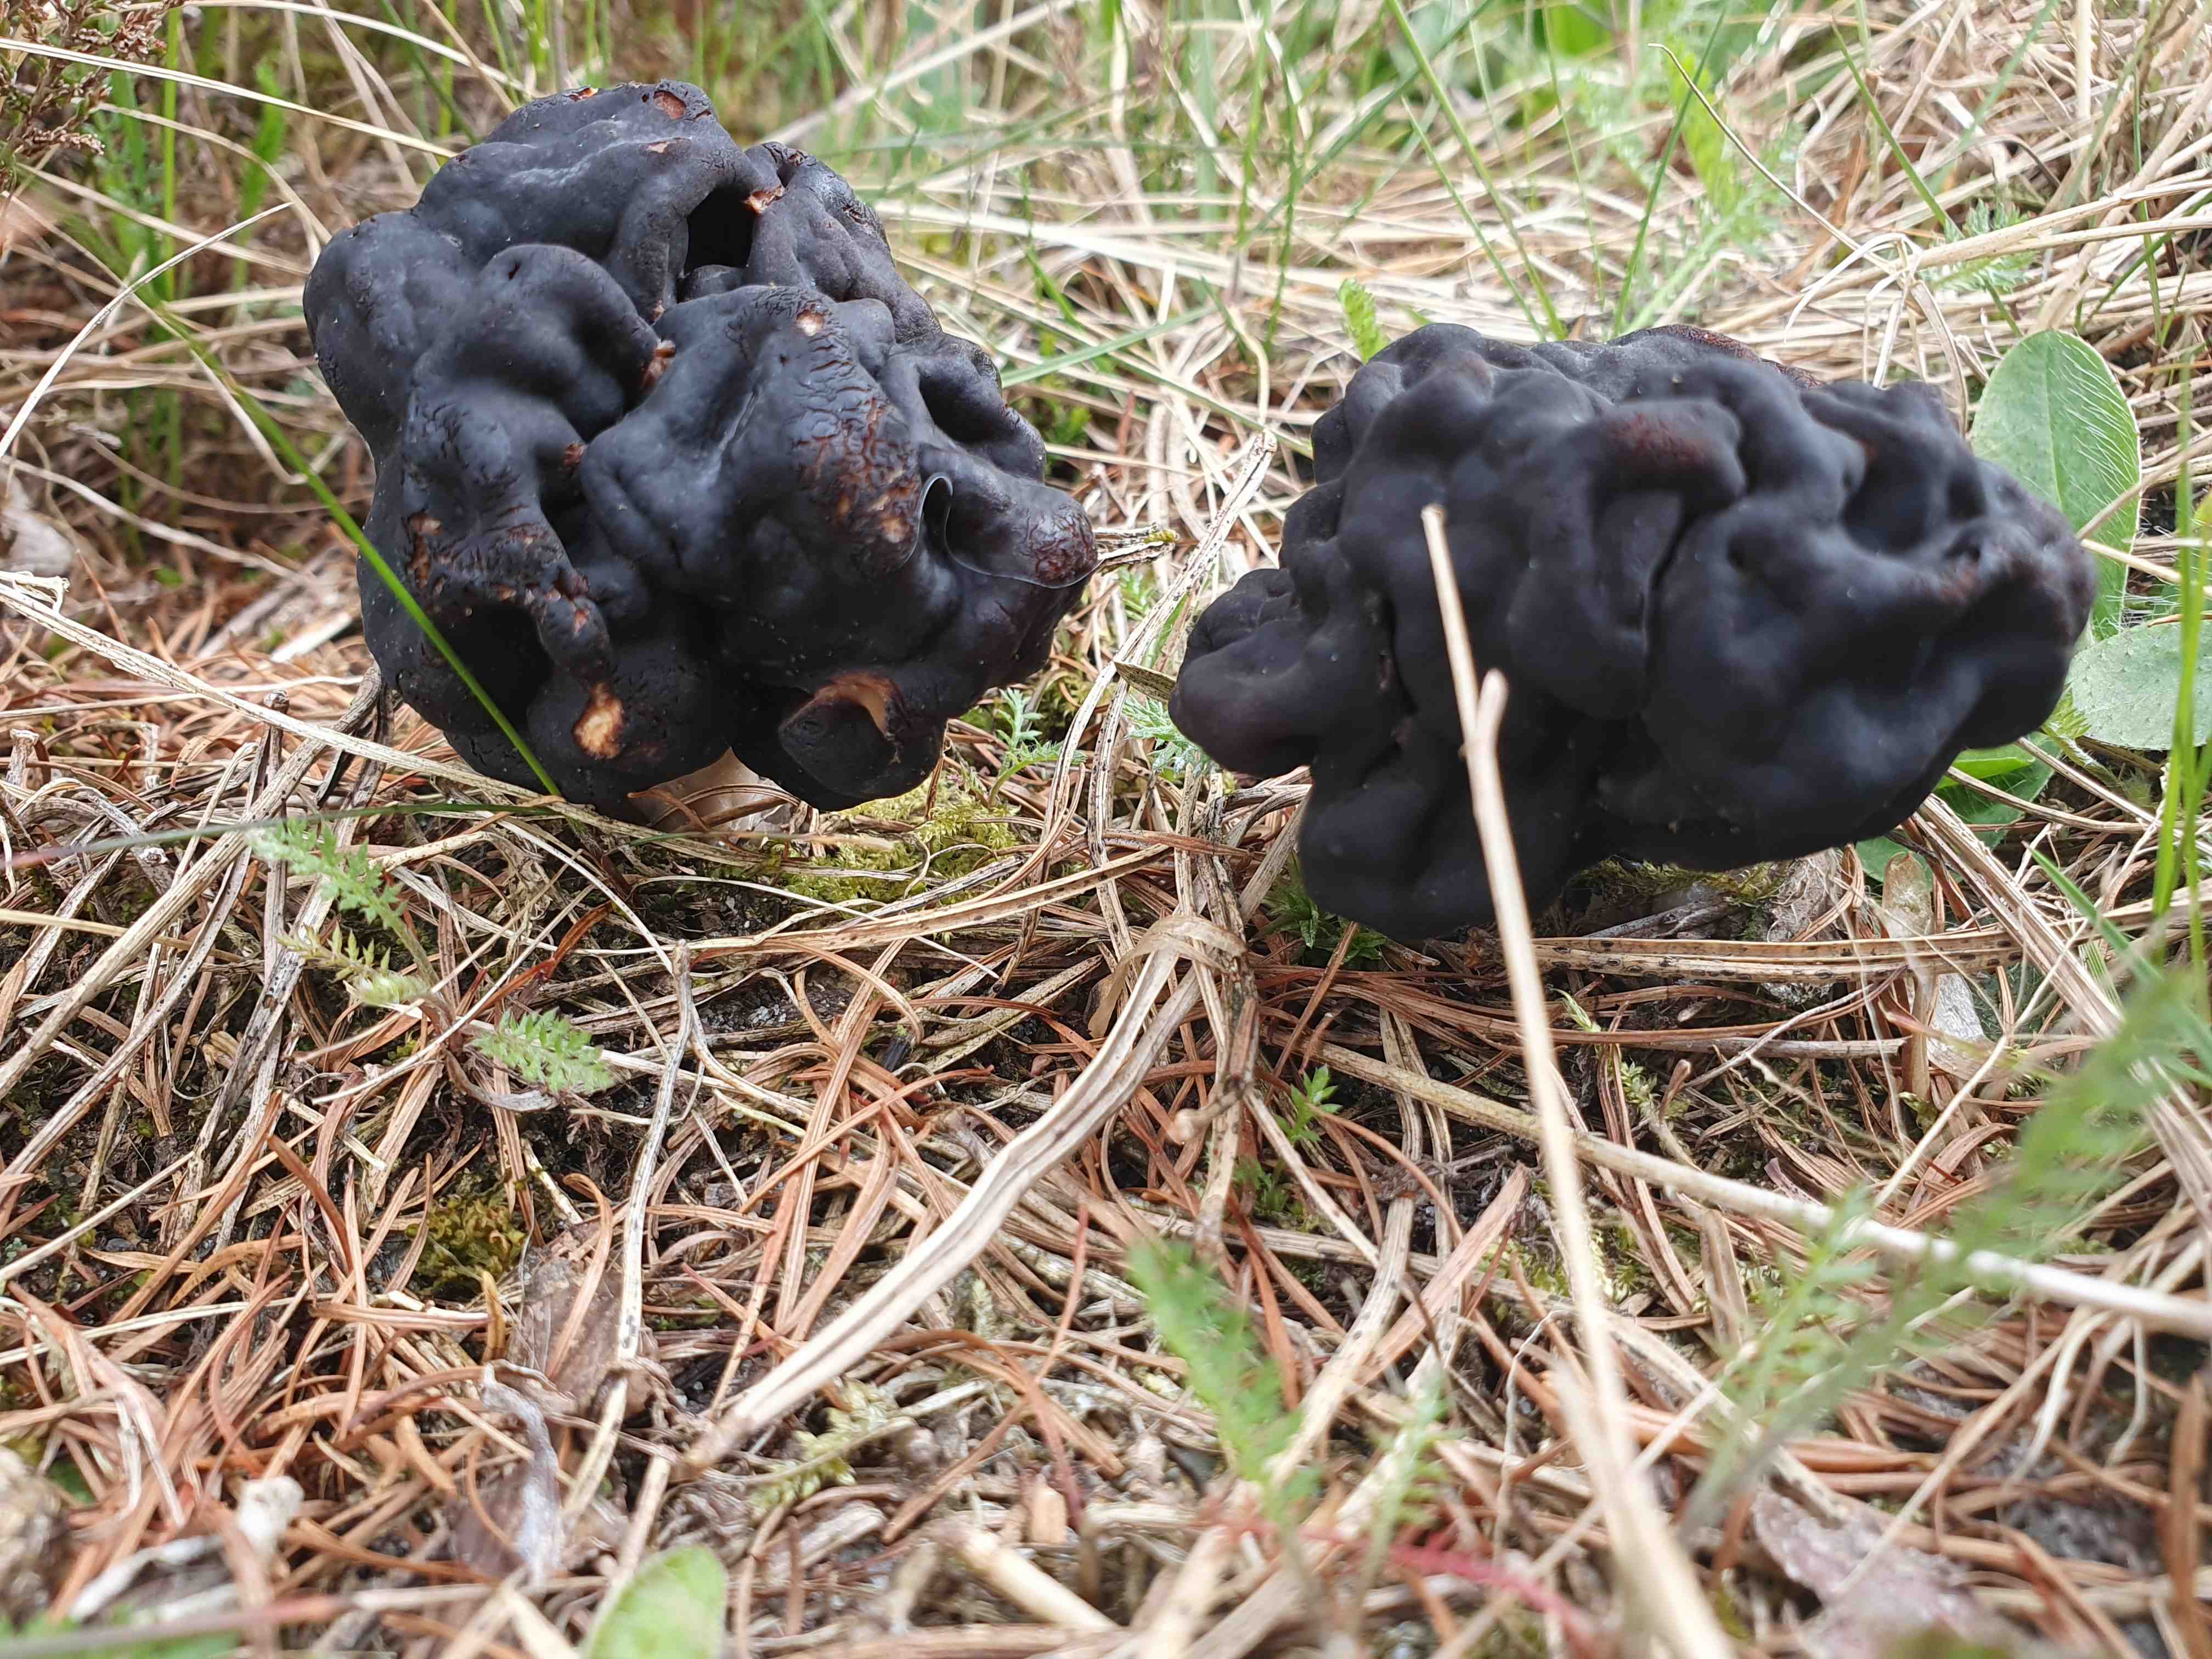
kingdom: Fungi
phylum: Ascomycota
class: Pezizomycetes
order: Pezizales
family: Discinaceae
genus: Gyromitra
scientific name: Gyromitra esculenta
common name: ægte stenmorkel
